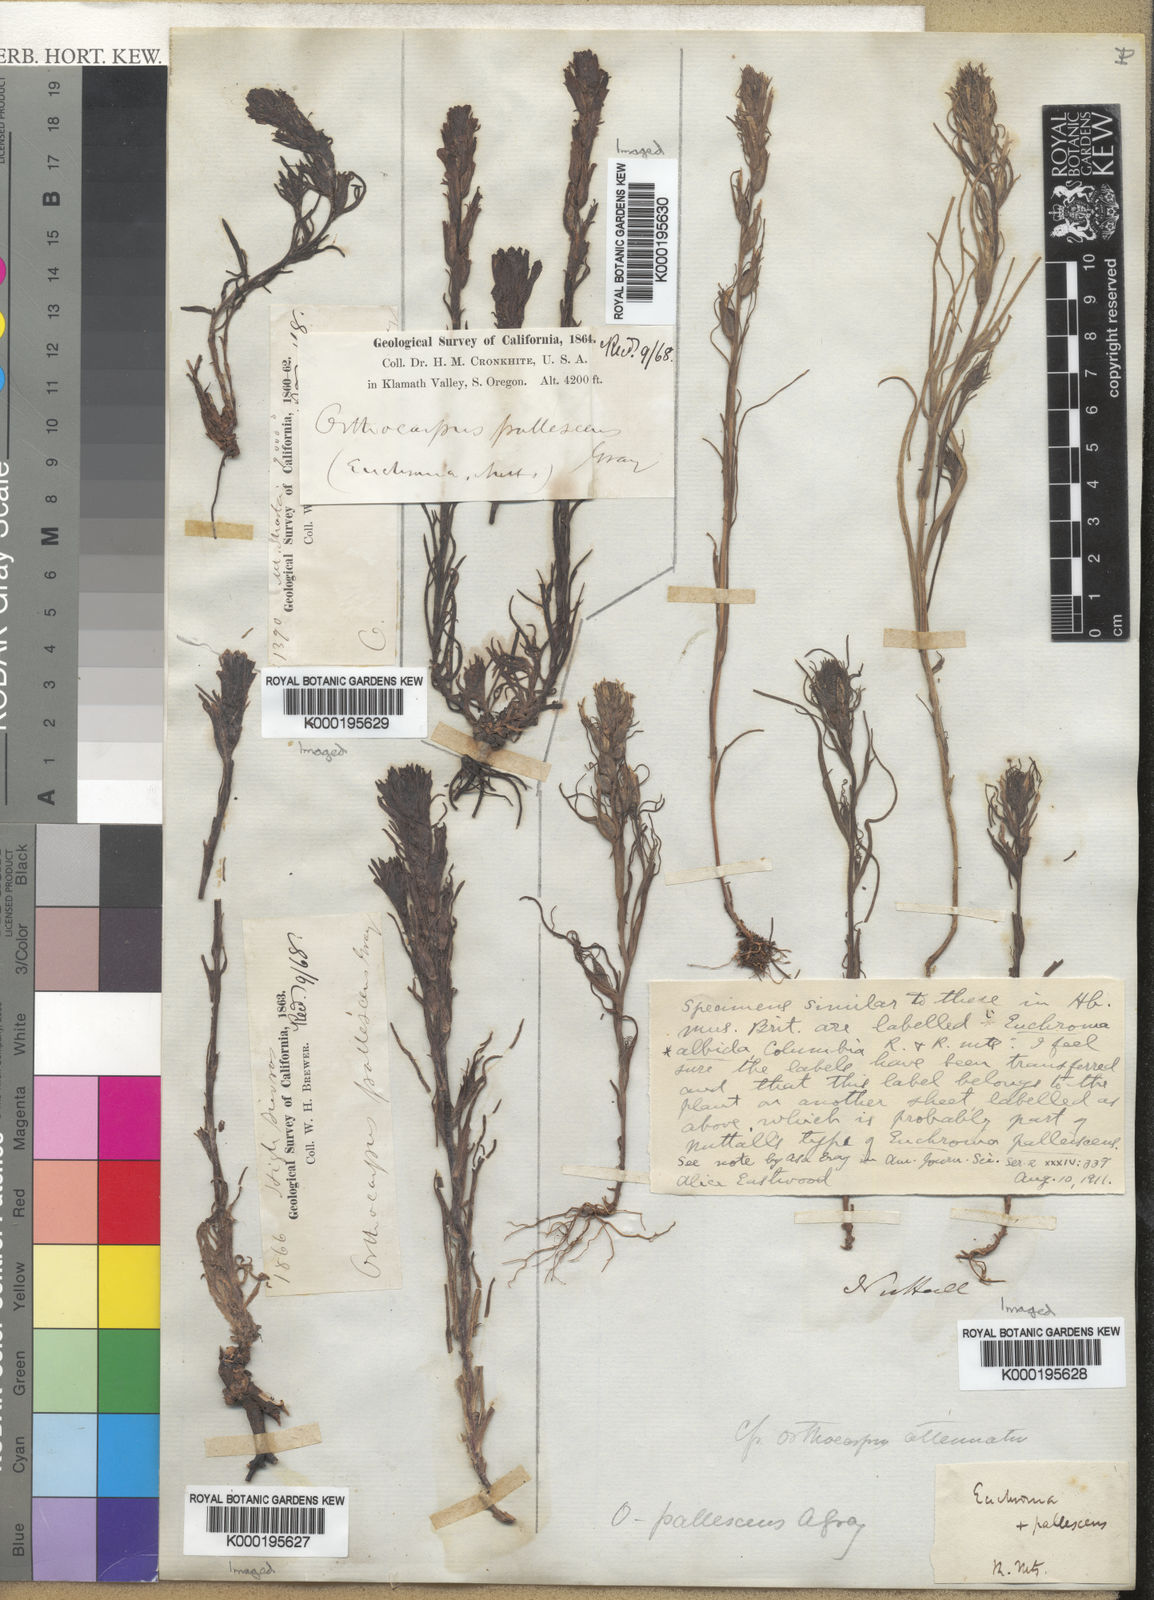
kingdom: Plantae
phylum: Tracheophyta
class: Magnoliopsida
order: Lamiales
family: Orobanchaceae
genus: Castilleja
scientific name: Castilleja attenuata
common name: Valley tassels
